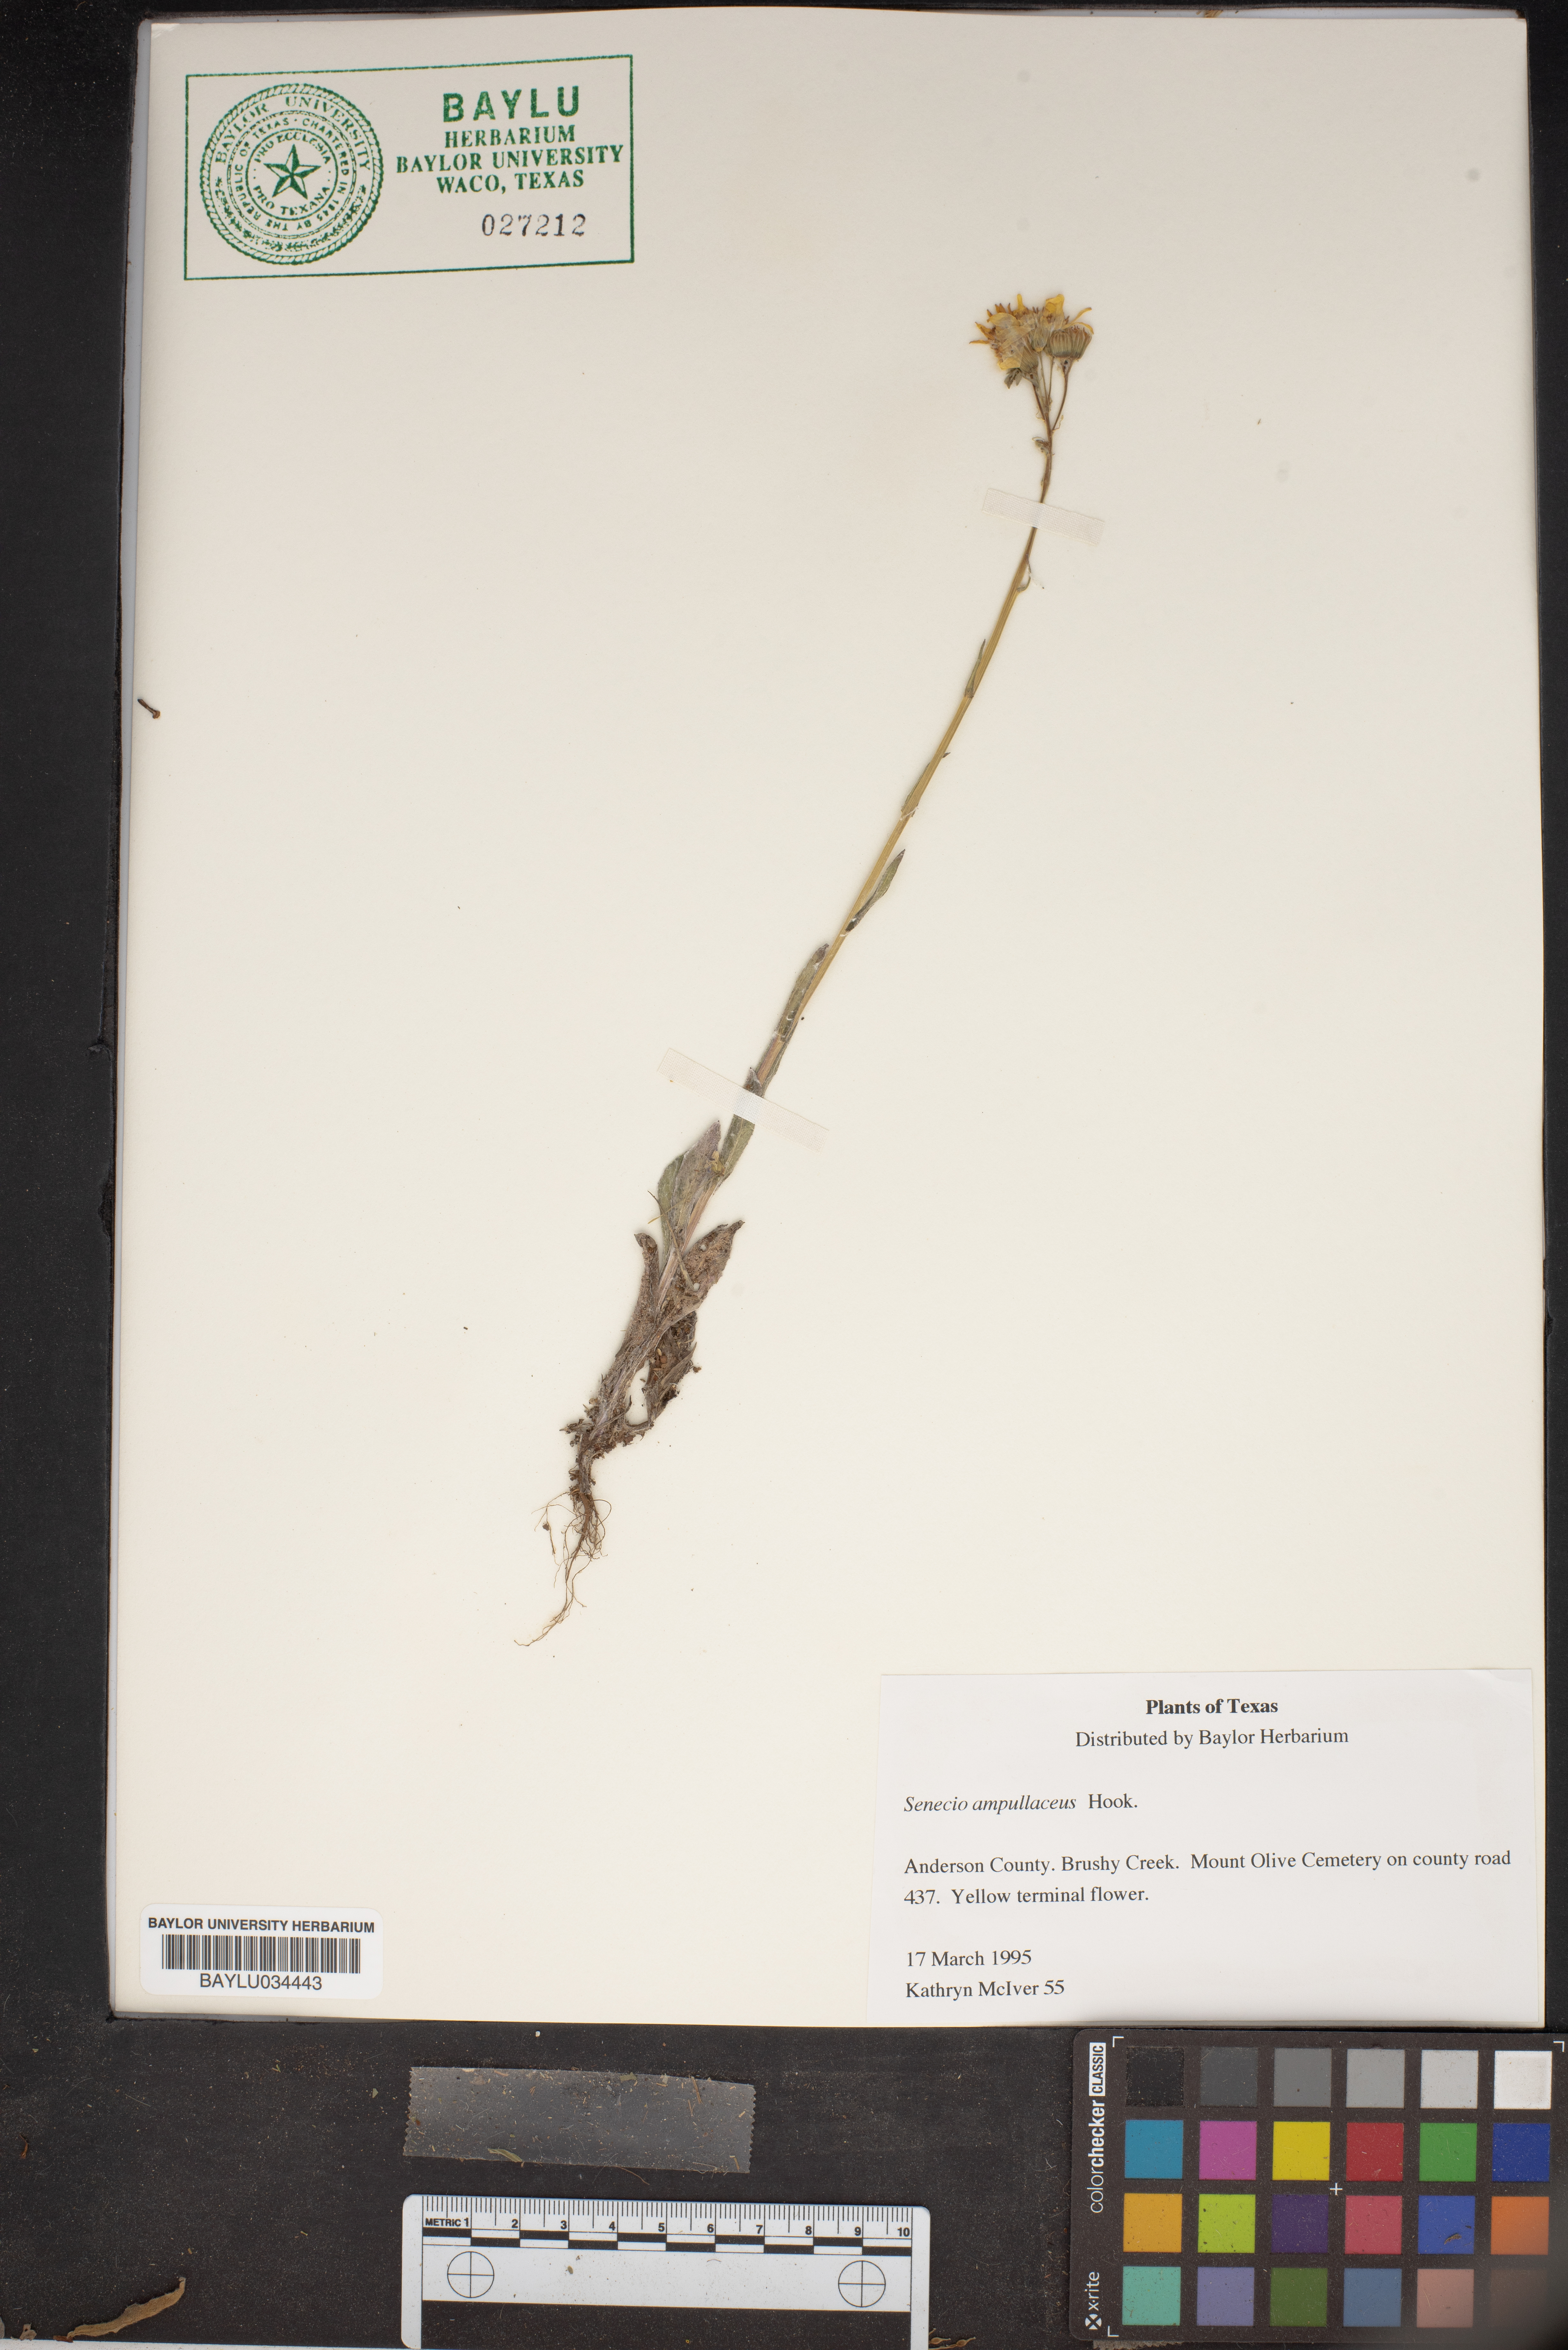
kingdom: Plantae
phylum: Tracheophyta
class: Magnoliopsida
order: Asterales
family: Asteraceae
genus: Senecio
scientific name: Senecio ampullaceus
